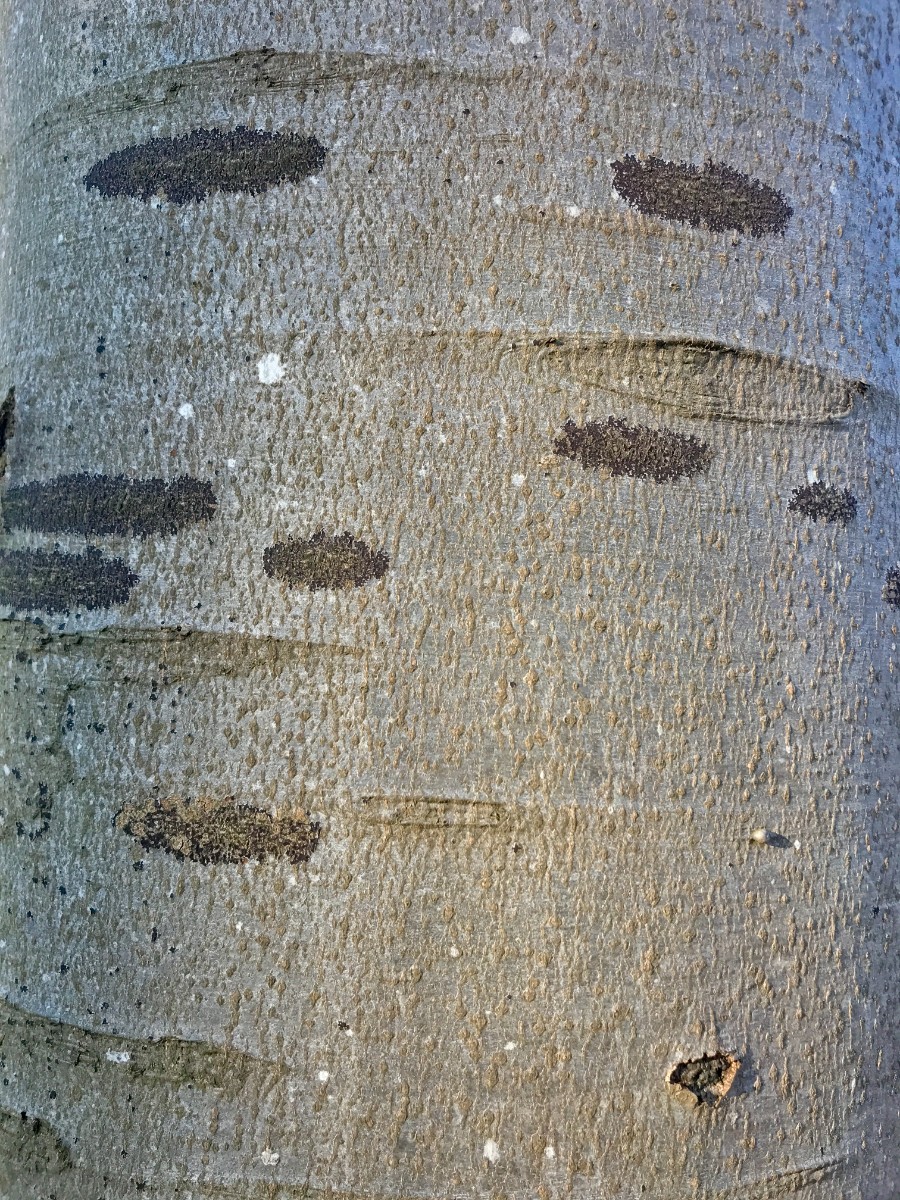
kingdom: Fungi
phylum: Ascomycota
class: Leotiomycetes
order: Rhytismatales
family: Ascodichaenaceae
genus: Ascodichaena
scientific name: Ascodichaena rugosa
